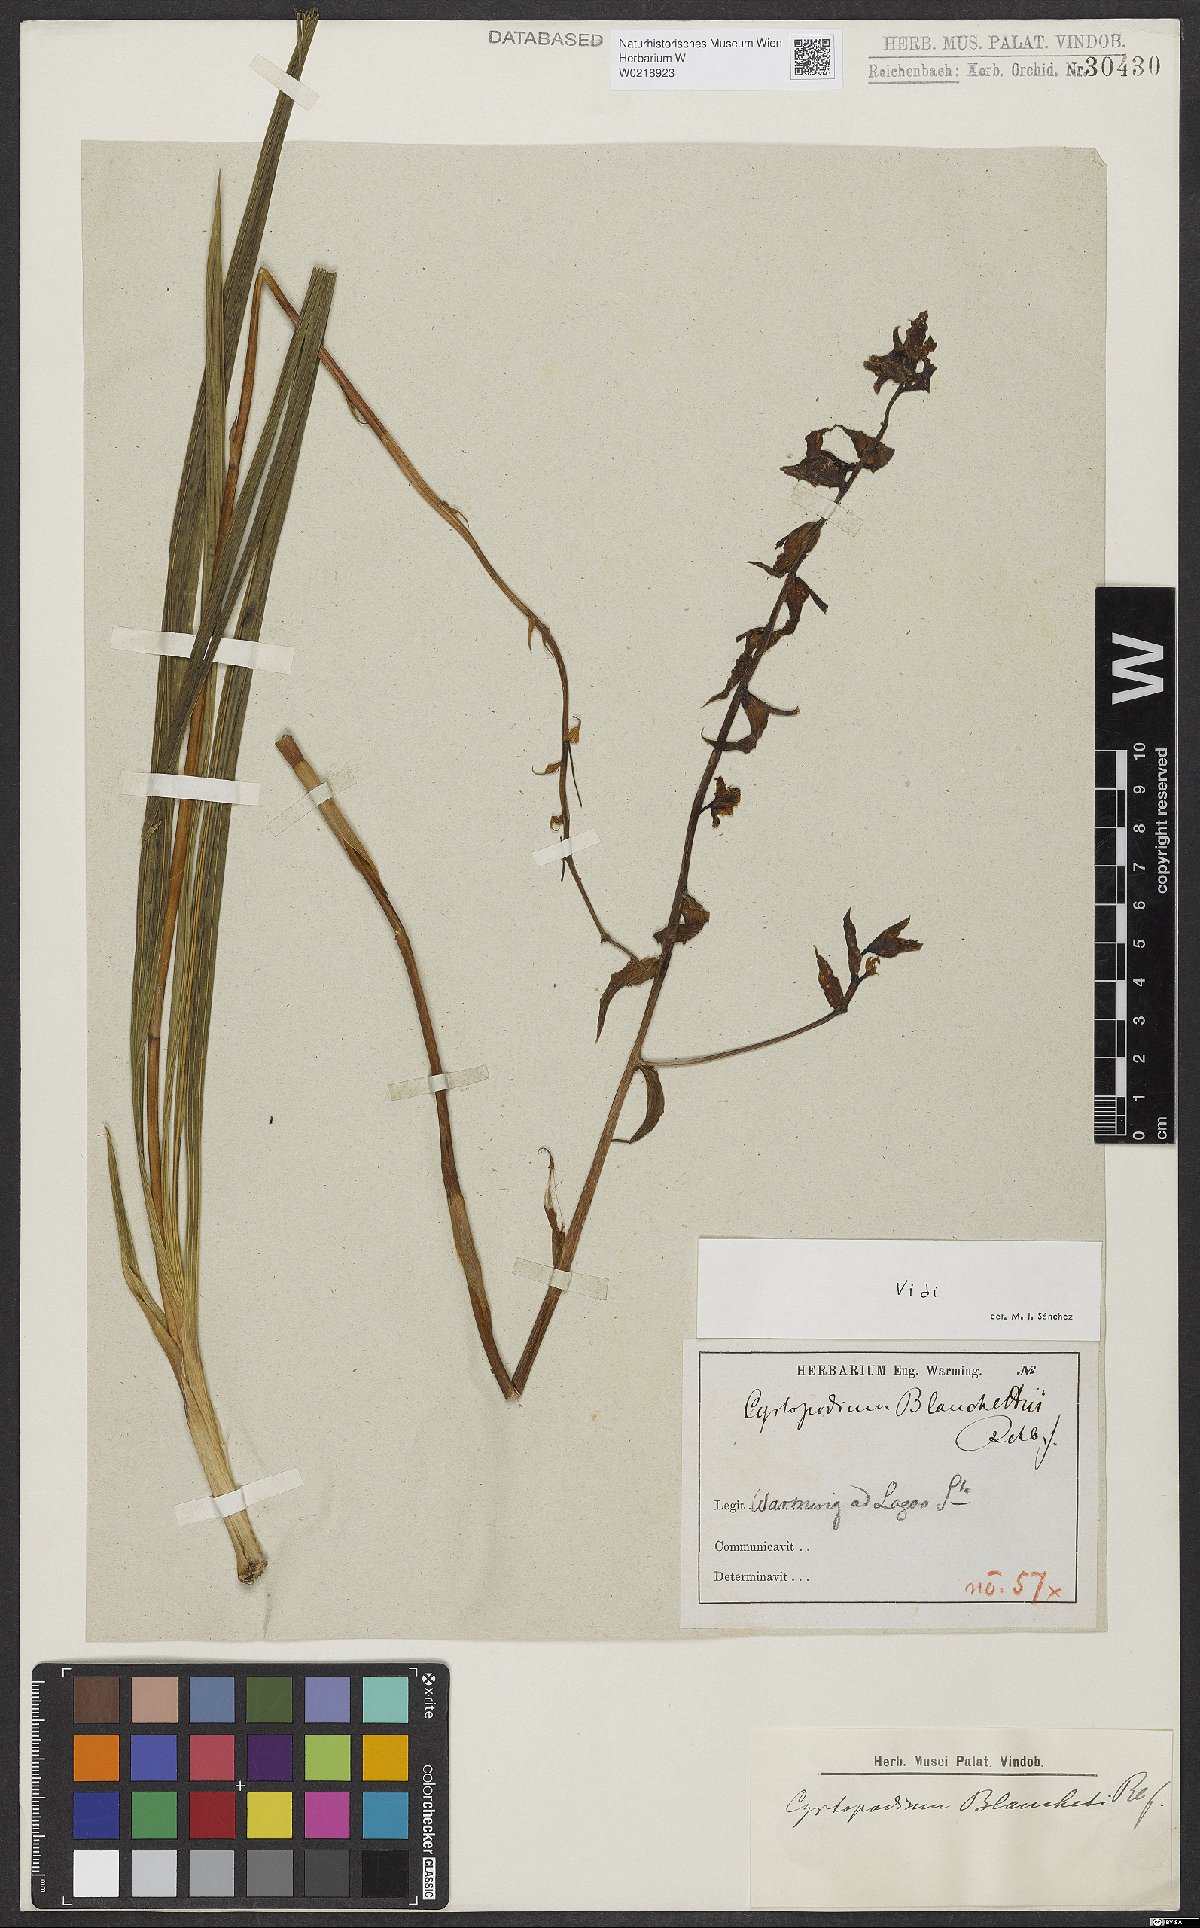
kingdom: Plantae
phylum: Tracheophyta
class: Liliopsida
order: Asparagales
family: Orchidaceae
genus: Cyrtopodium
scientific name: Cyrtopodium blanchetii
